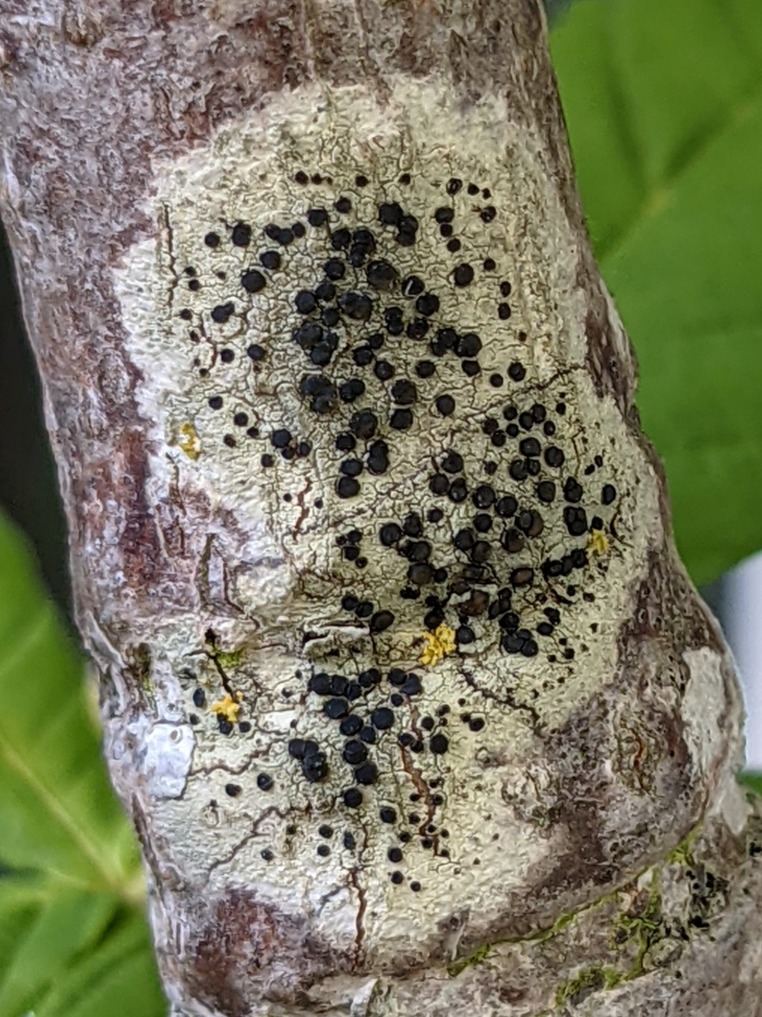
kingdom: Fungi
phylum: Ascomycota
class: Lecanoromycetes
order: Lecanorales
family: Lecanoraceae
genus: Lecidella
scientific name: Lecidella elaeochroma
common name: Grågrøn skivelav
